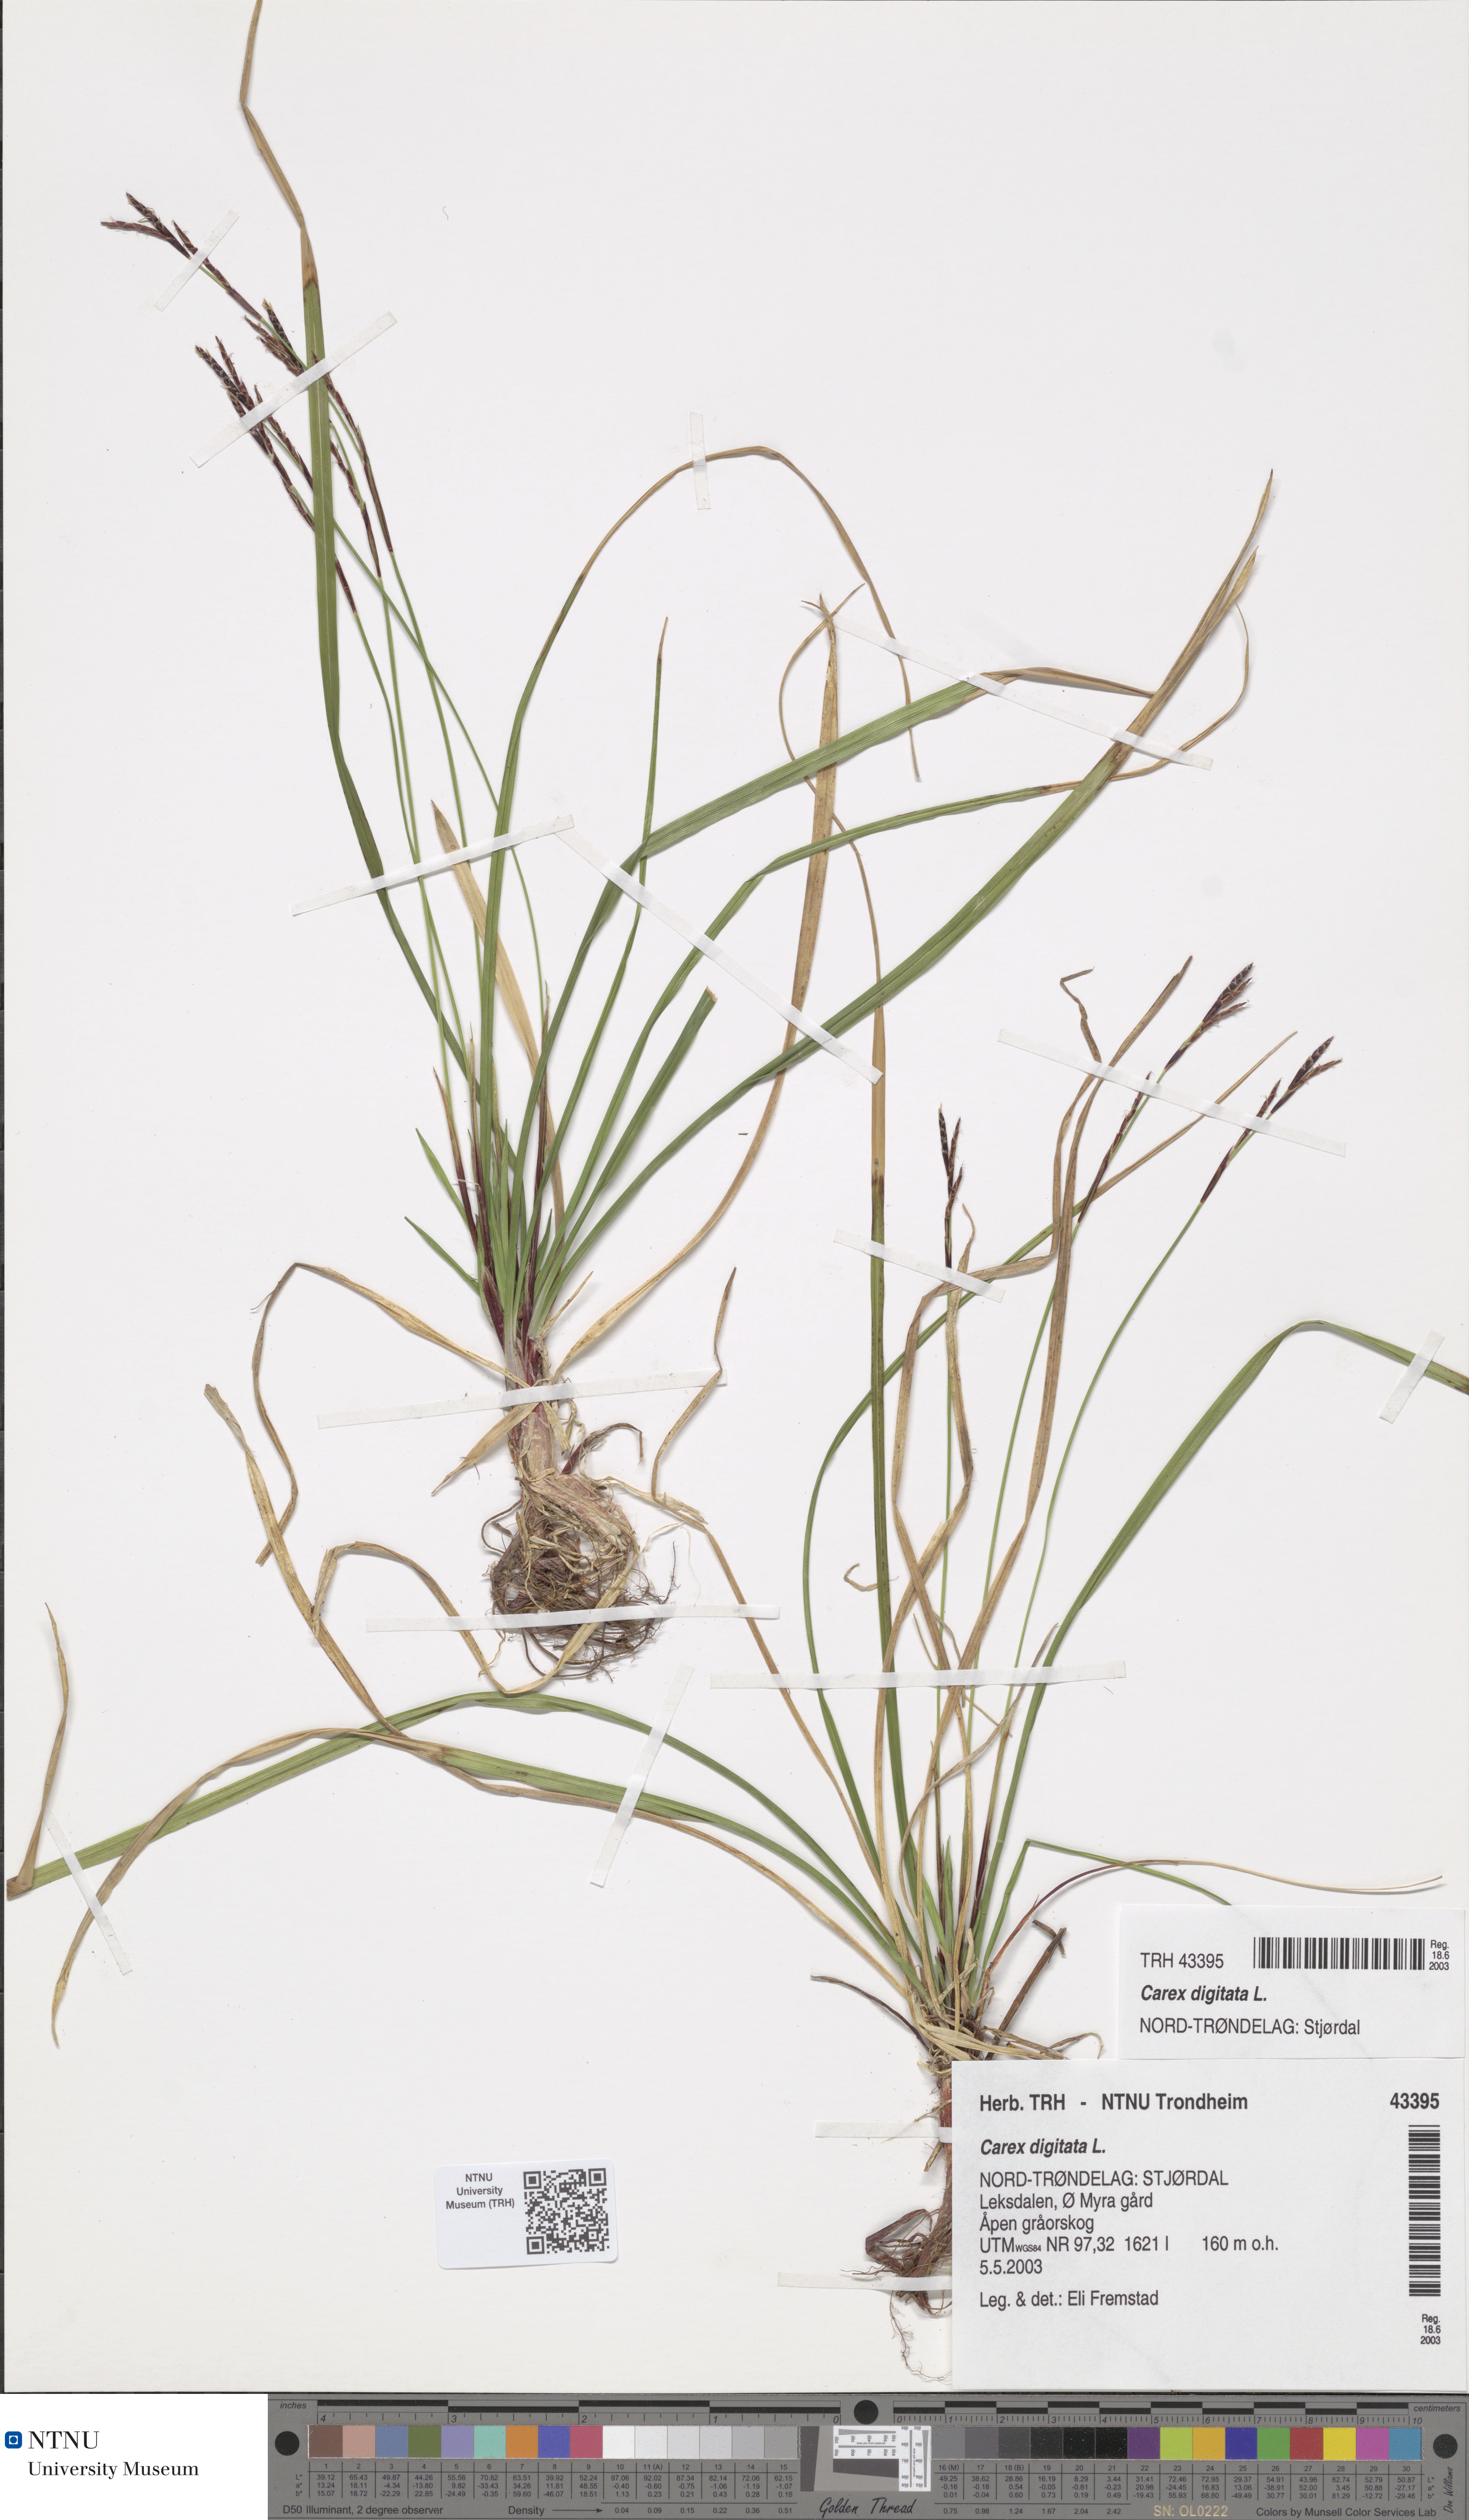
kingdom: Plantae
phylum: Tracheophyta
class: Liliopsida
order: Poales
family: Cyperaceae
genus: Carex
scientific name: Carex digitata
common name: Fingered sedge
